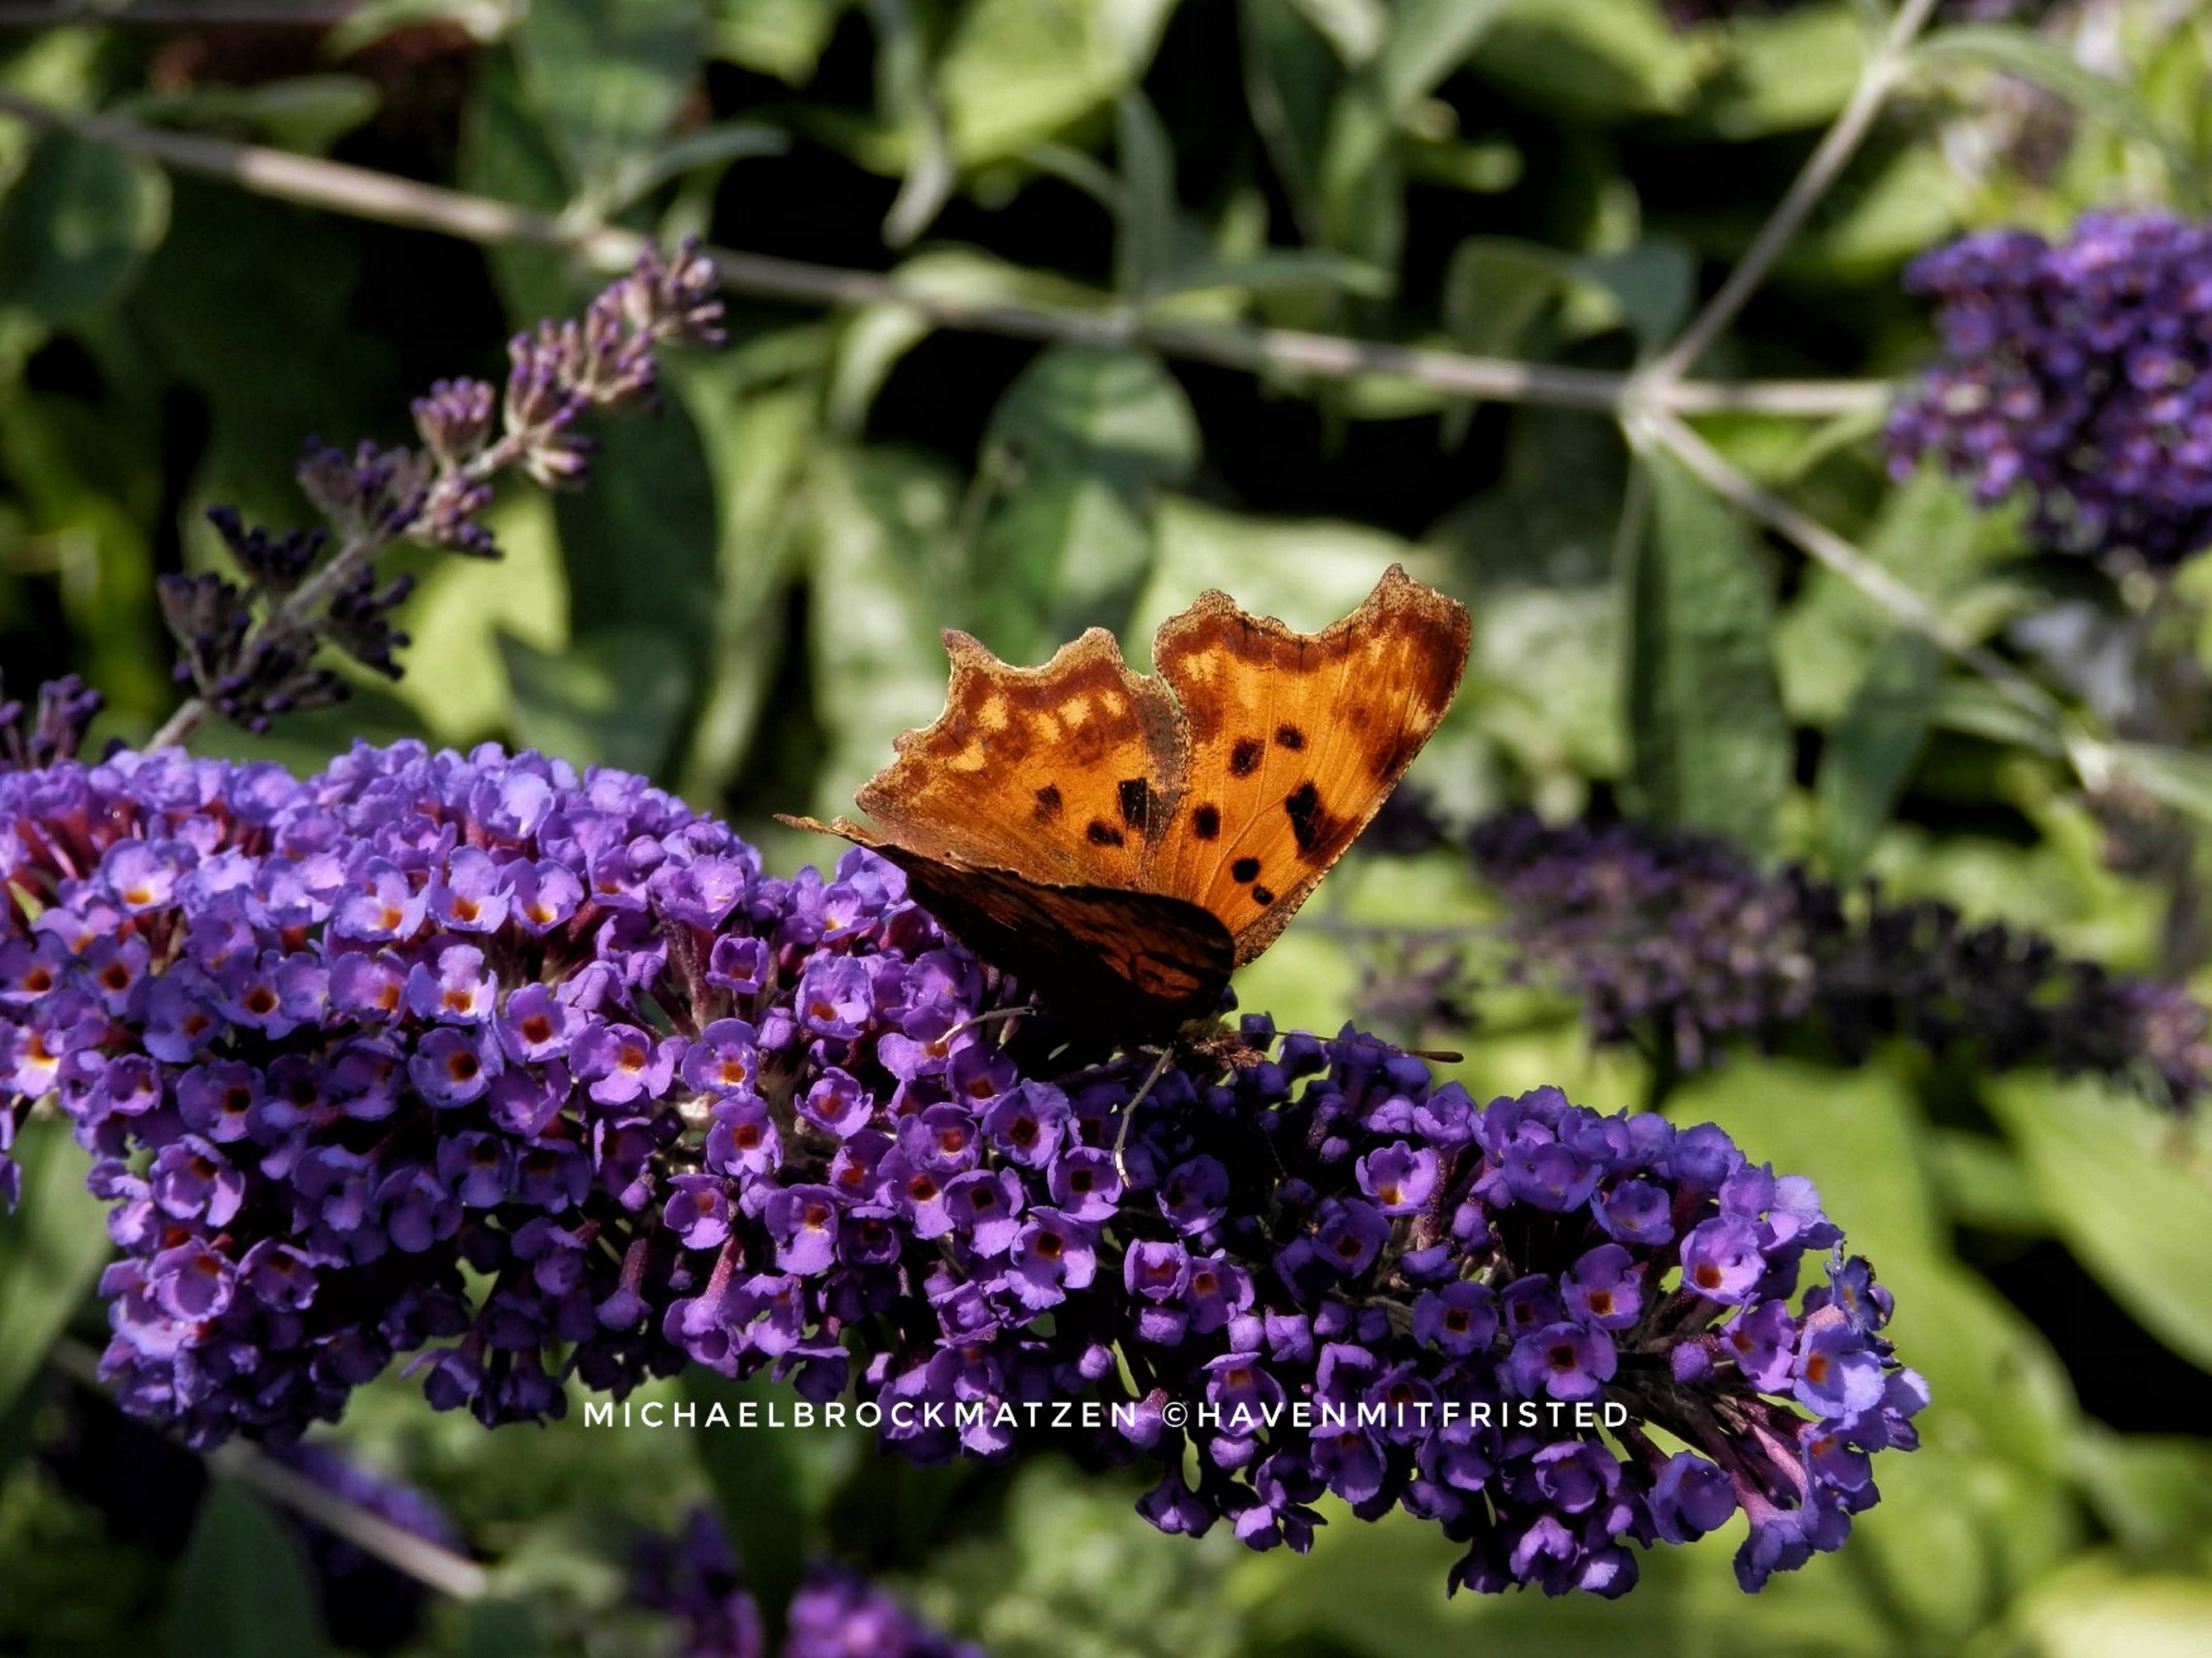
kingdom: Animalia
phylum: Arthropoda
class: Insecta
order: Lepidoptera
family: Nymphalidae
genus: Polygonia
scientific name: Polygonia c-album
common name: Det hvide C
